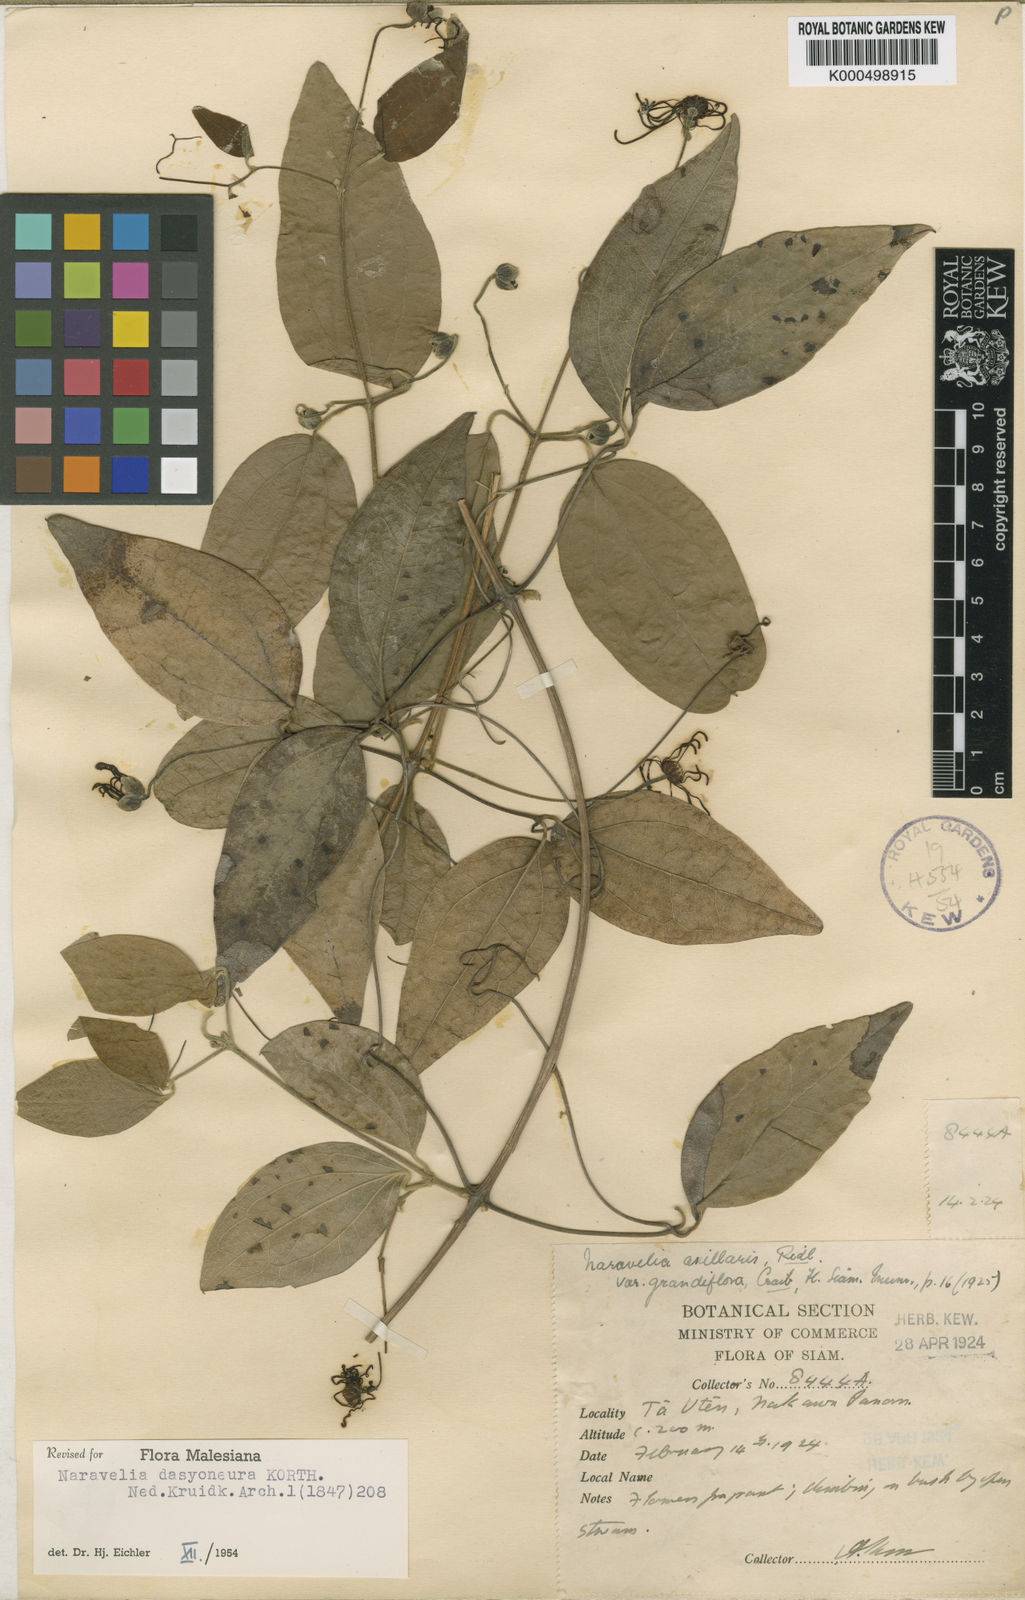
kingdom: Plantae
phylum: Tracheophyta
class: Magnoliopsida
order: Ranunculales
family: Ranunculaceae
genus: Clematis
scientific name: Clematis dasyoneura
